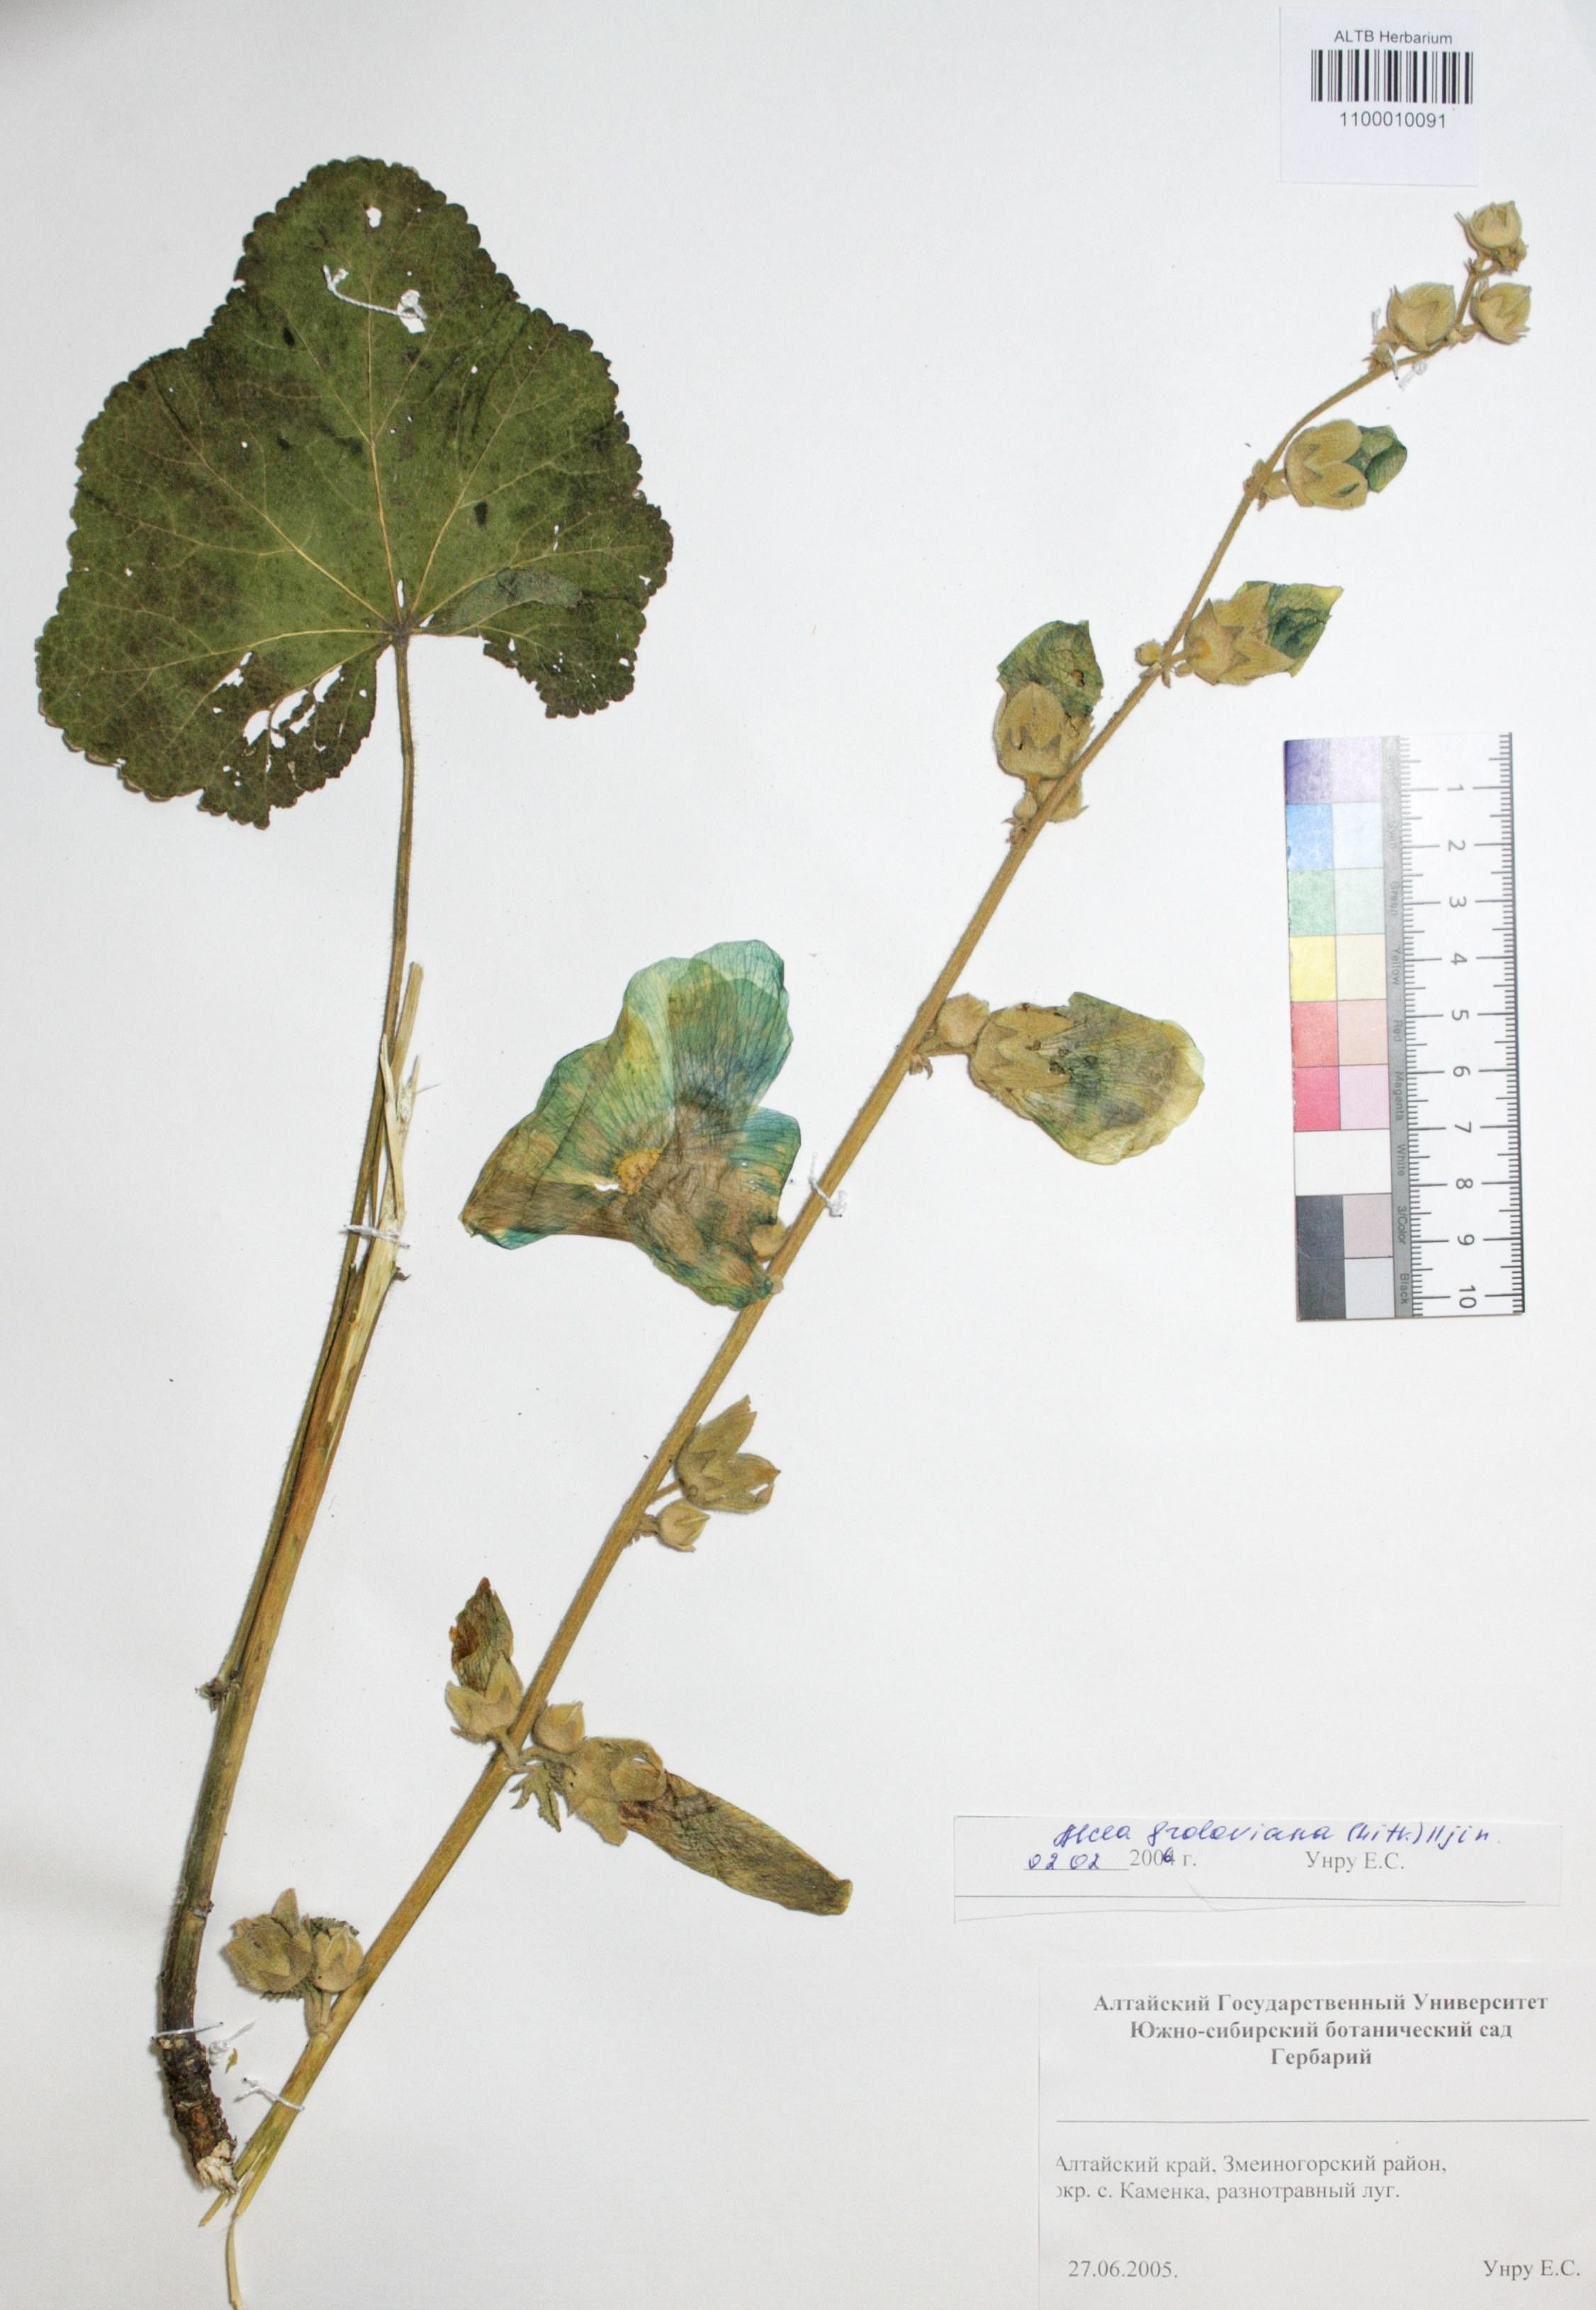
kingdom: Plantae
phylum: Tracheophyta
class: Magnoliopsida
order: Malvales
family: Malvaceae
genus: Alcea
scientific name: Alcea froloviana
